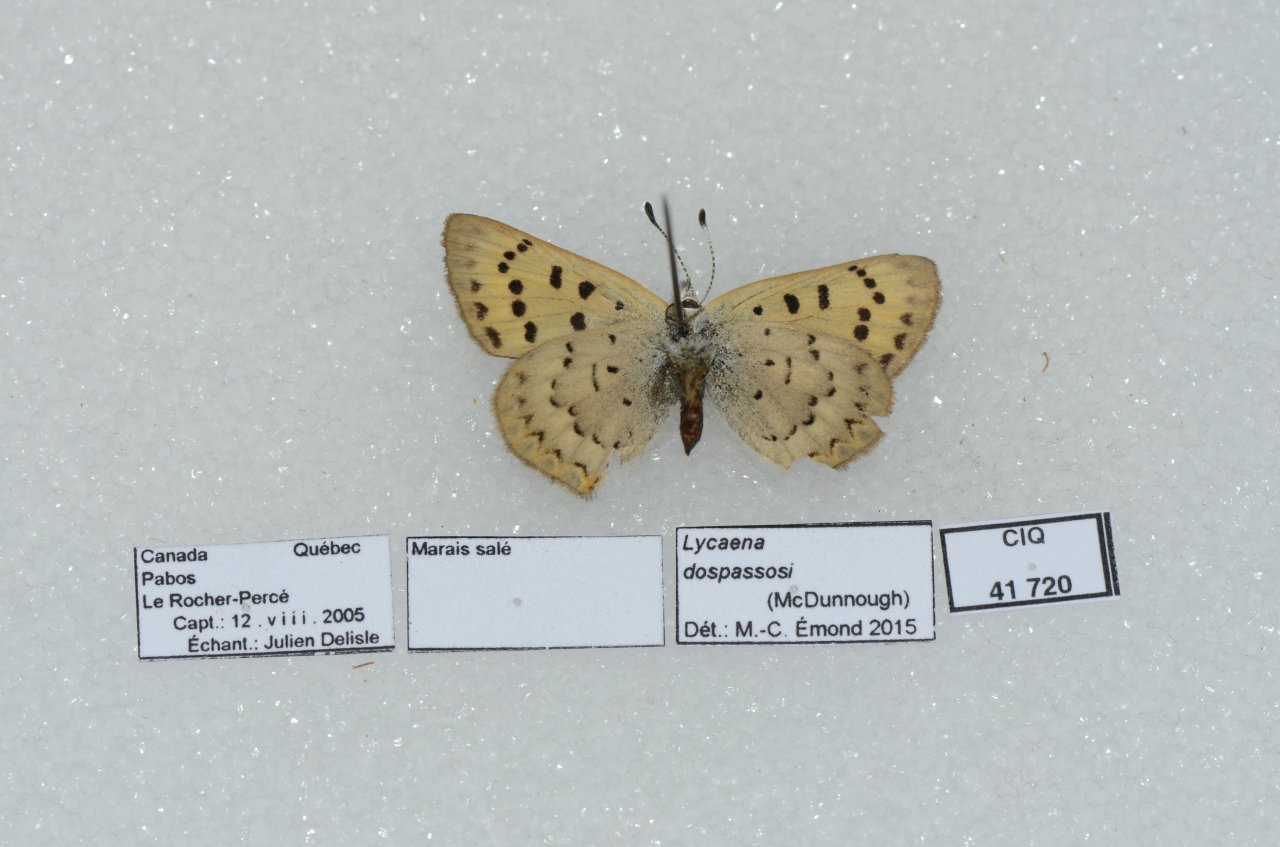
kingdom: Animalia
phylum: Arthropoda
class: Insecta
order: Lepidoptera
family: Lycaenidae
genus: Epidemia
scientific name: Epidemia dorcas
